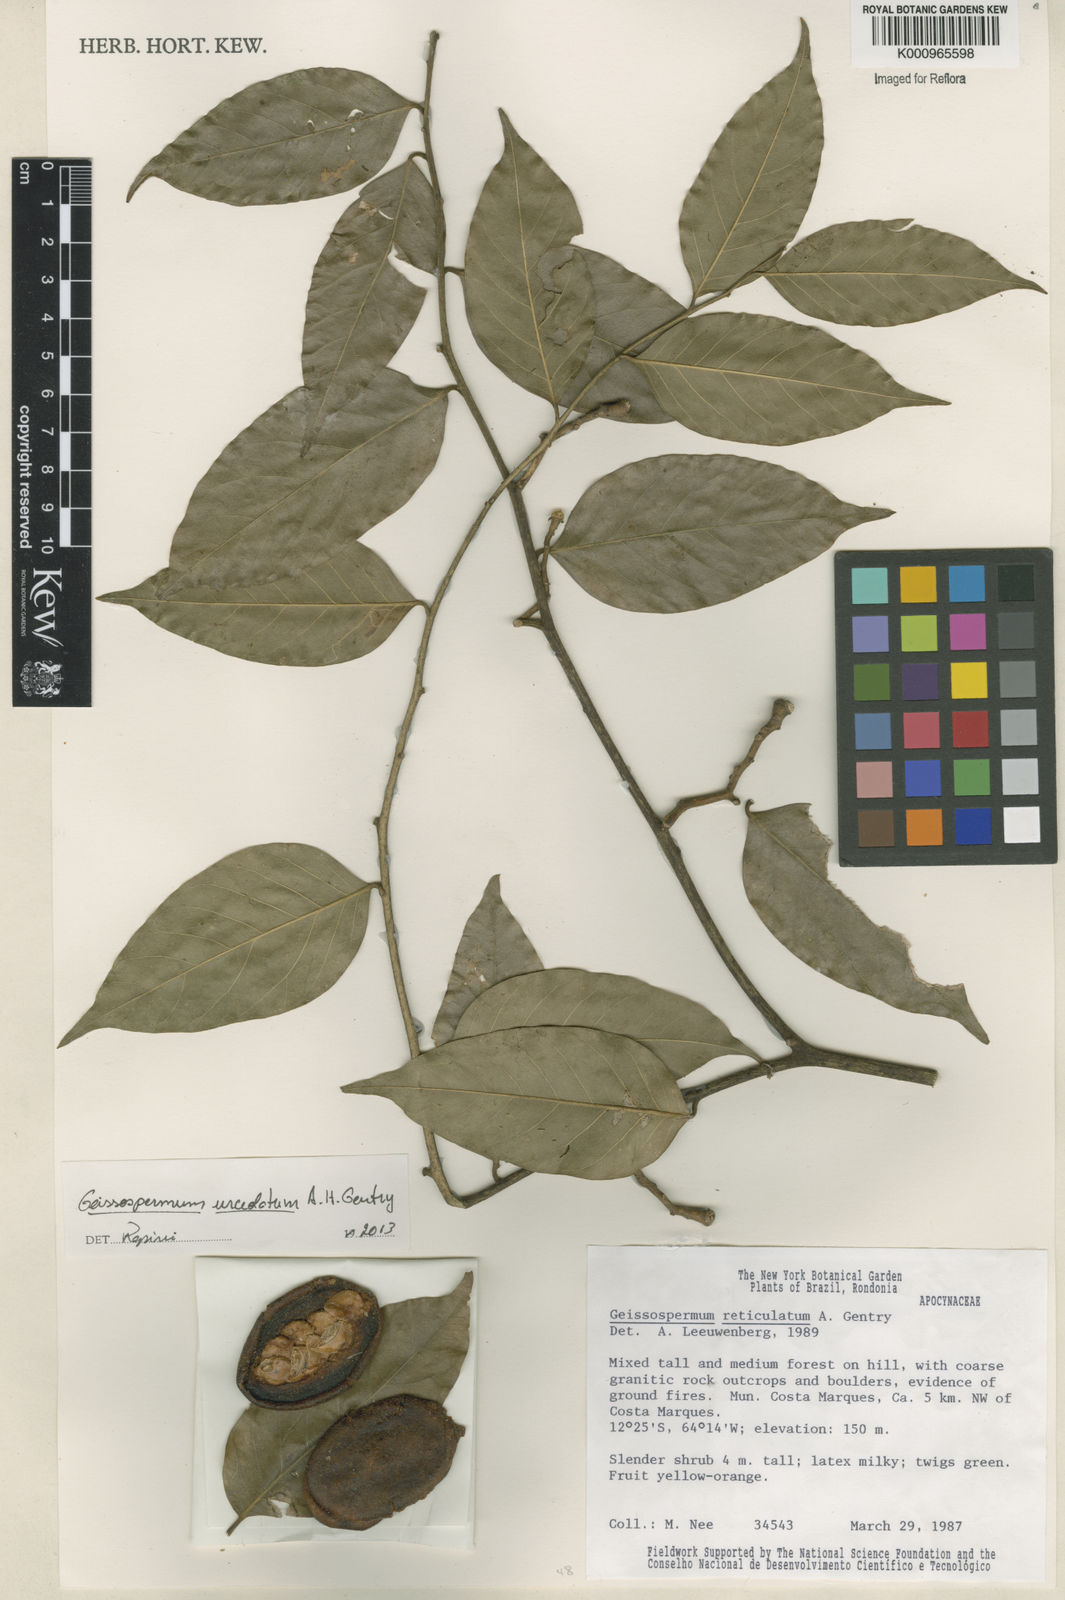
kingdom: Plantae
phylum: Tracheophyta
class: Magnoliopsida
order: Gentianales
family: Apocynaceae
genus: Geissospermum
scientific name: Geissospermum urceolatum
